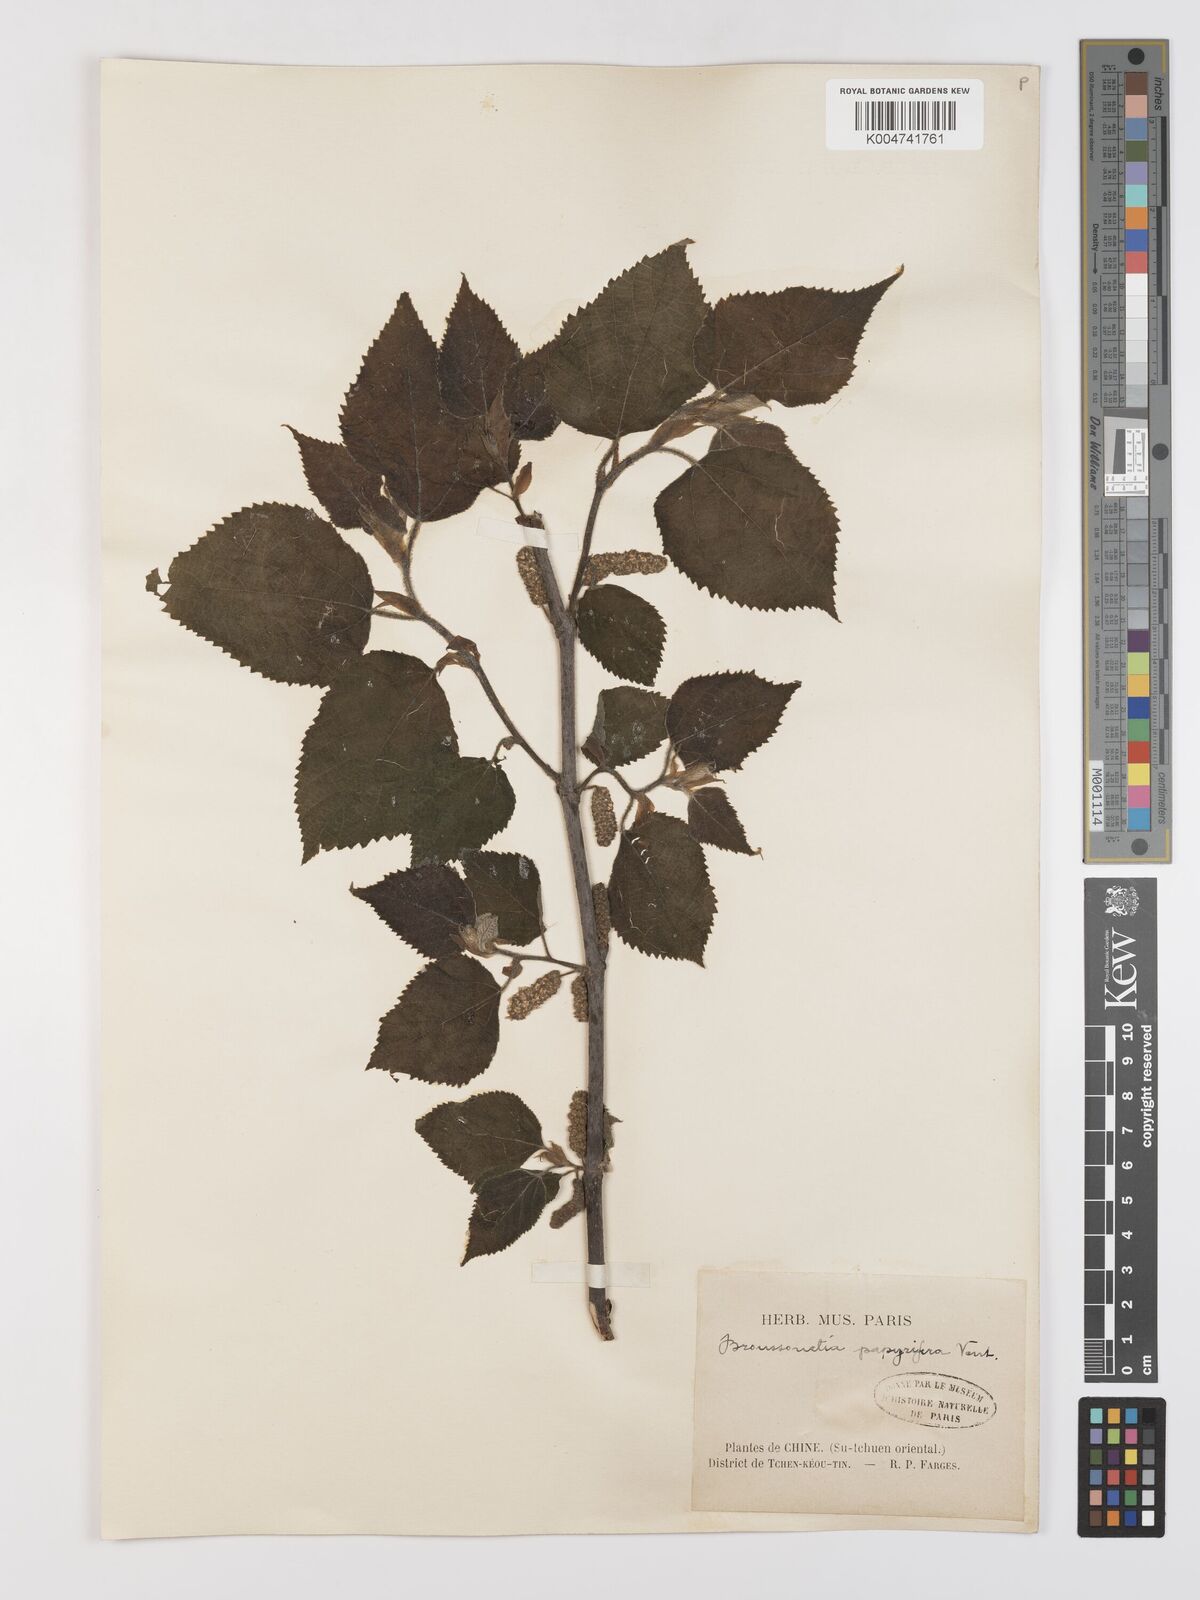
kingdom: Plantae
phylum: Tracheophyta
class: Magnoliopsida
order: Rosales
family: Moraceae
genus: Broussonetia
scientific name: Broussonetia
